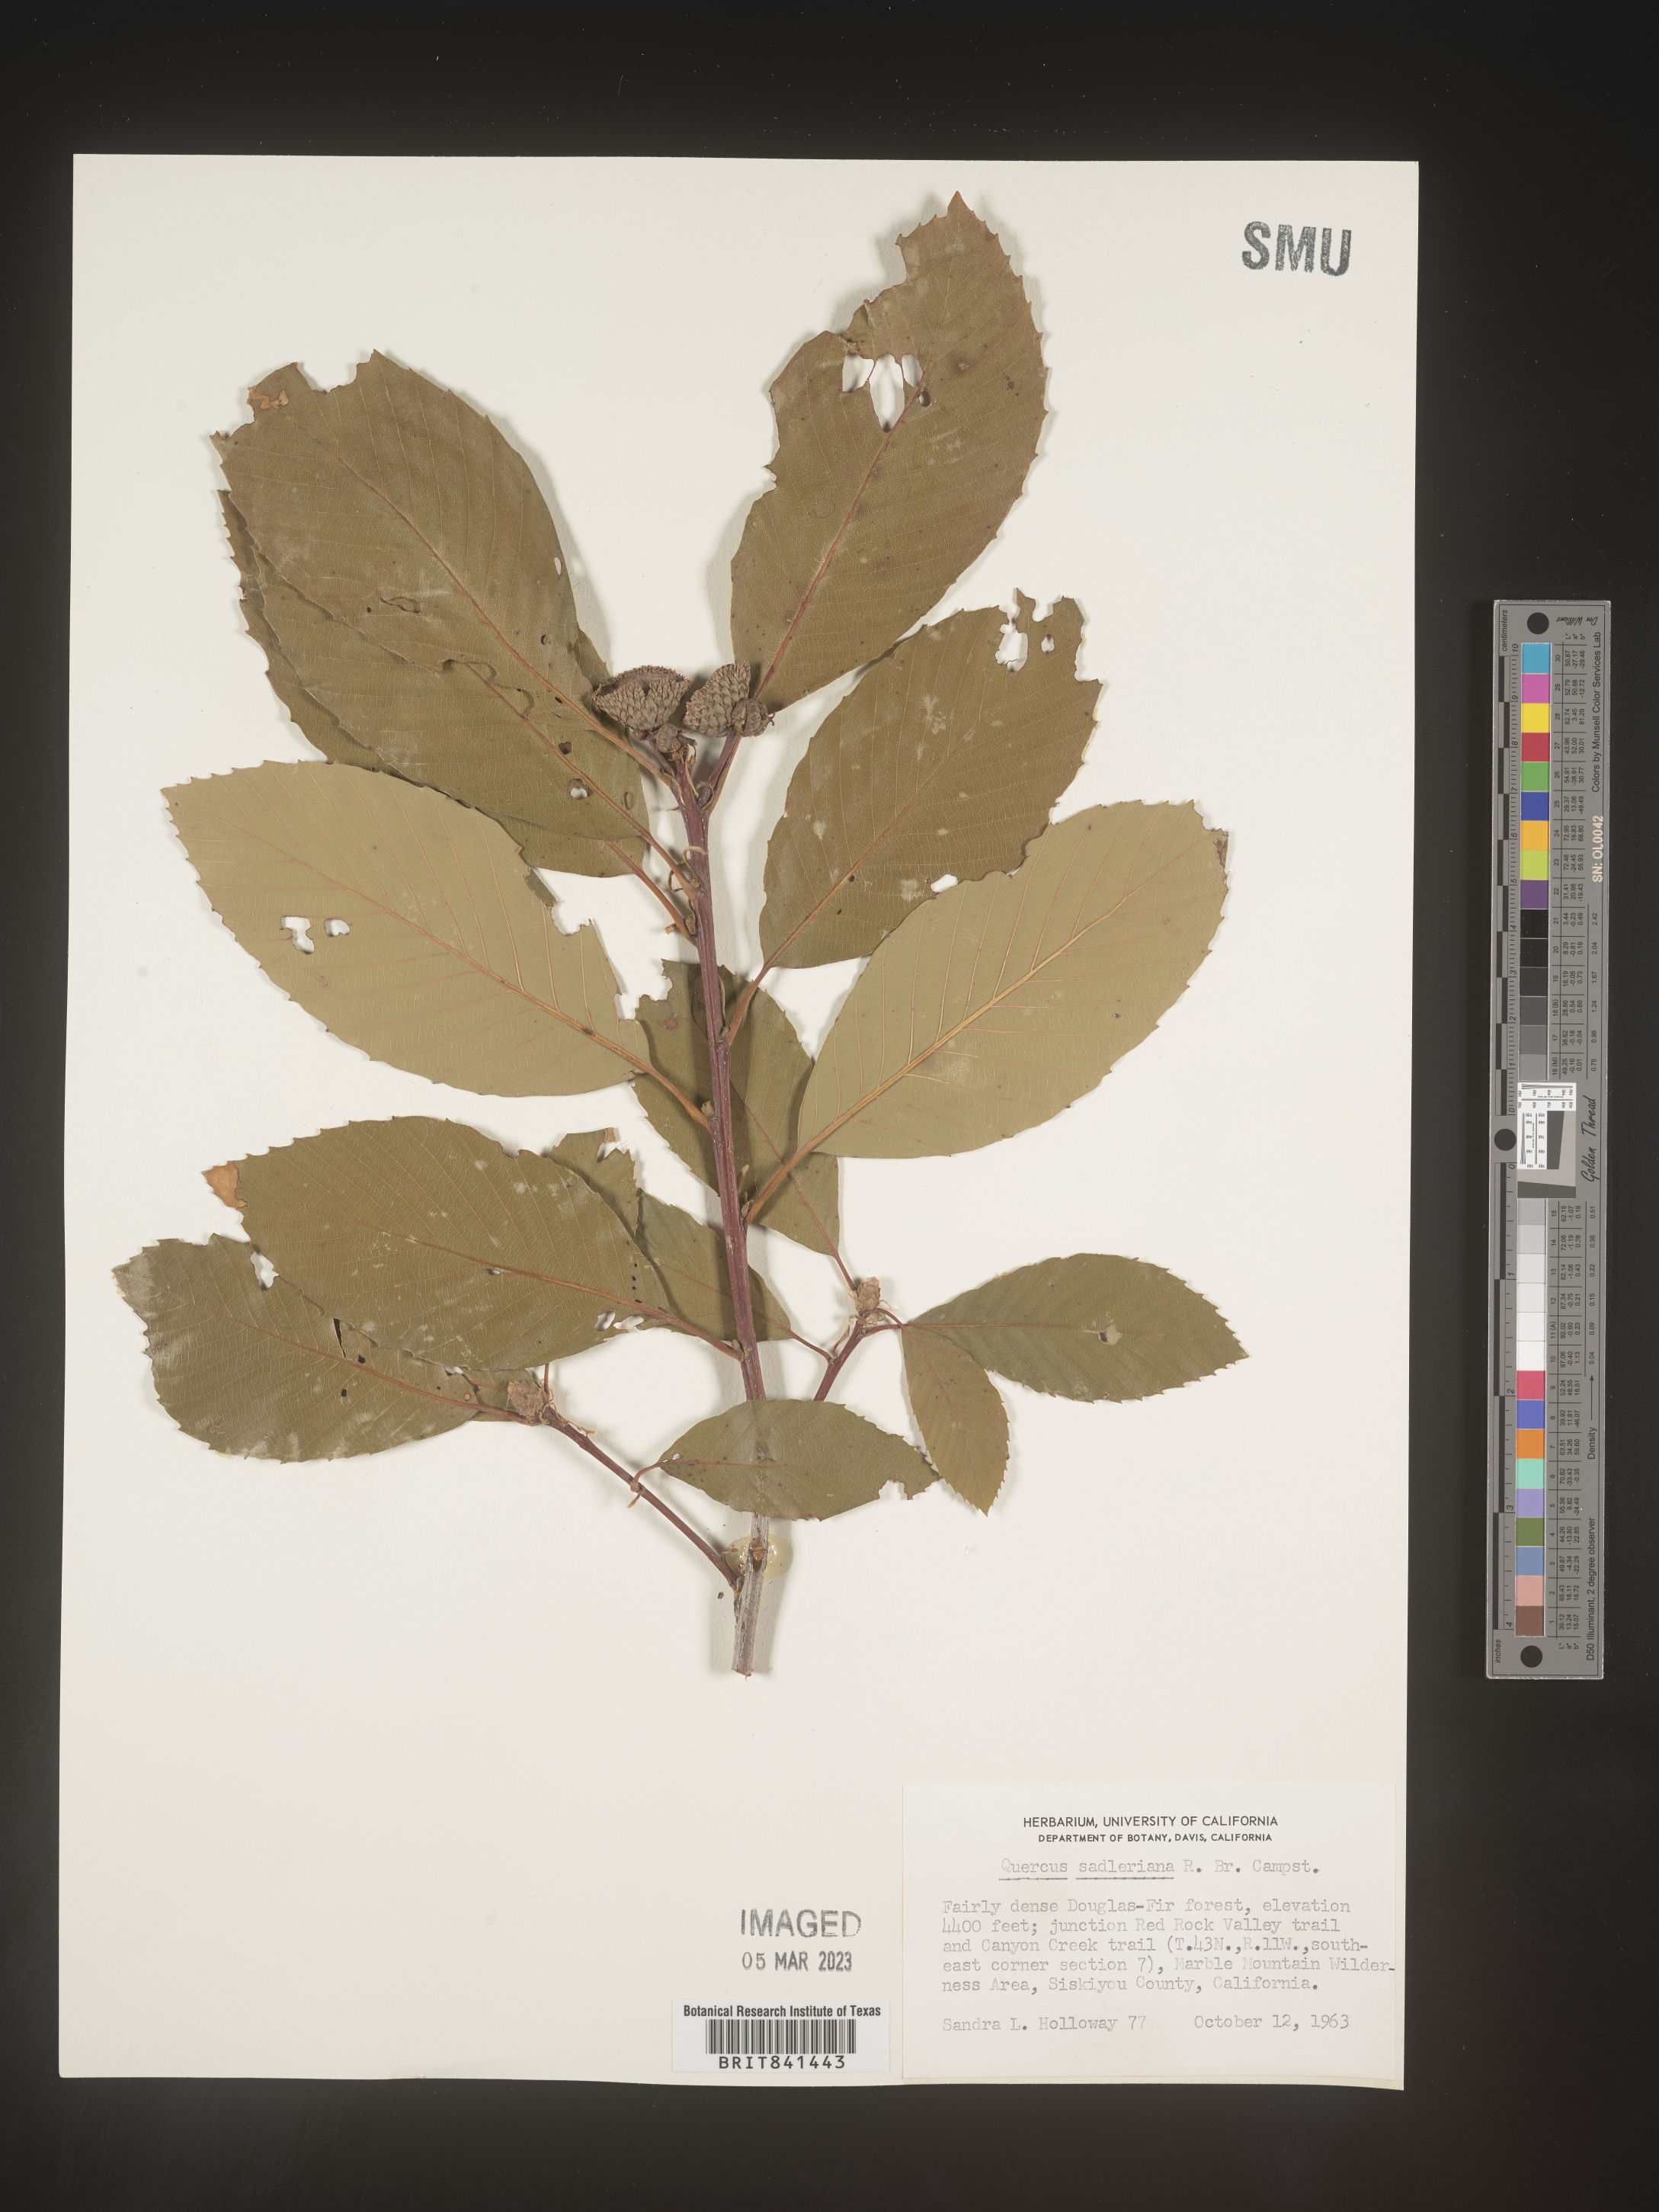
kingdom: Plantae
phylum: Tracheophyta
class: Magnoliopsida
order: Fagales
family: Fagaceae
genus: Quercus
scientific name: Quercus sadleriana
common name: Deer oak
